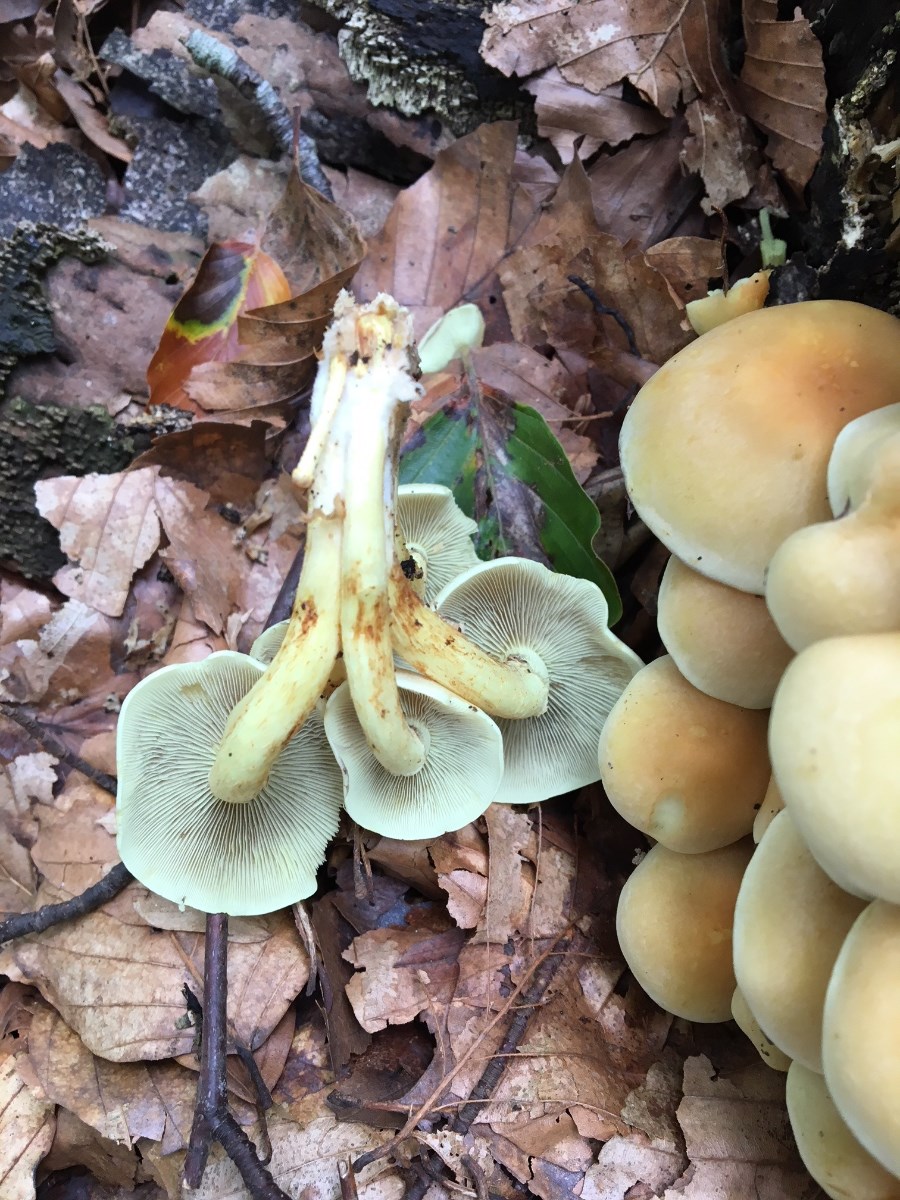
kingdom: Fungi
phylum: Basidiomycota
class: Agaricomycetes
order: Agaricales
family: Strophariaceae
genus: Hypholoma
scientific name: Hypholoma fasciculare
